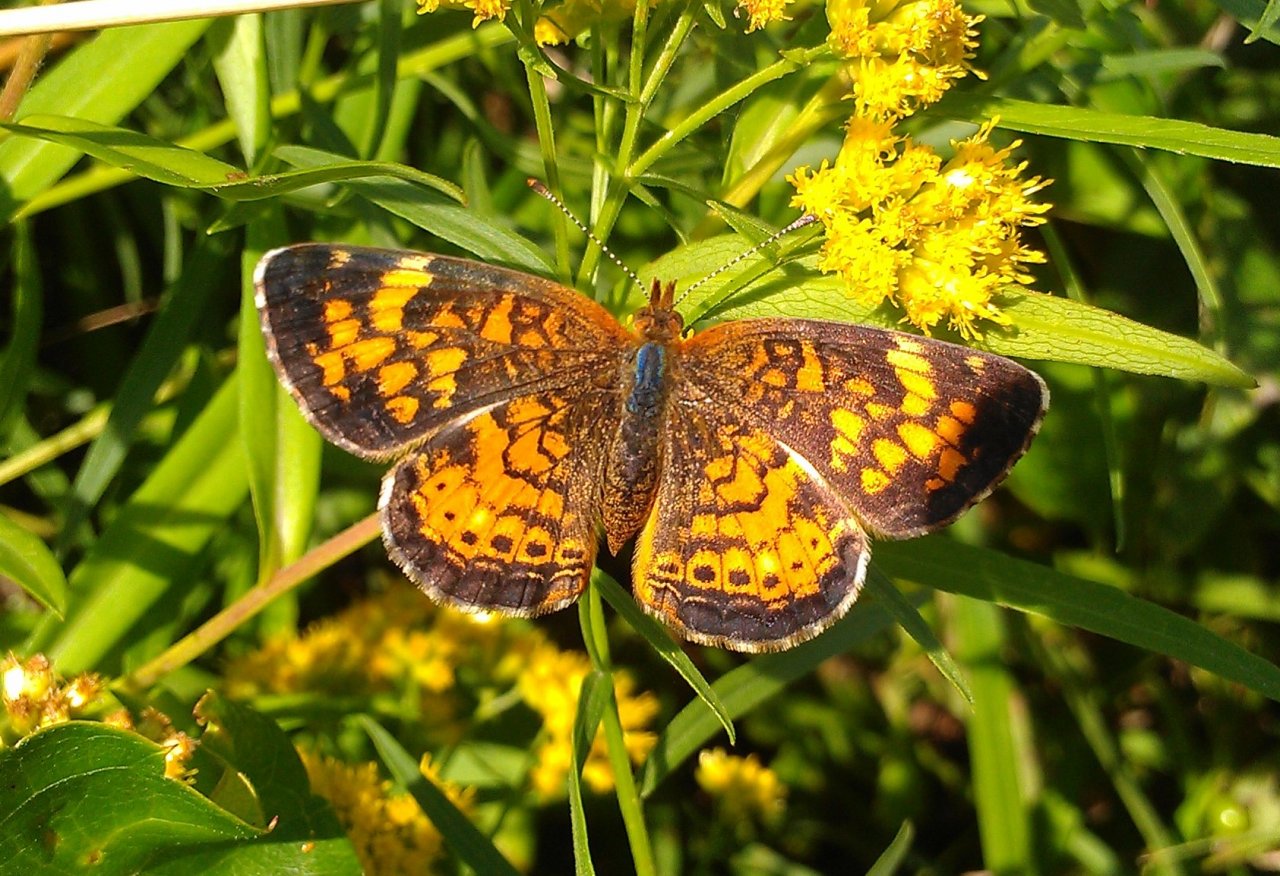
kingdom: Animalia
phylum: Arthropoda
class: Insecta
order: Lepidoptera
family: Nymphalidae
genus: Phyciodes
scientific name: Phyciodes tharos
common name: Northern Crescent
